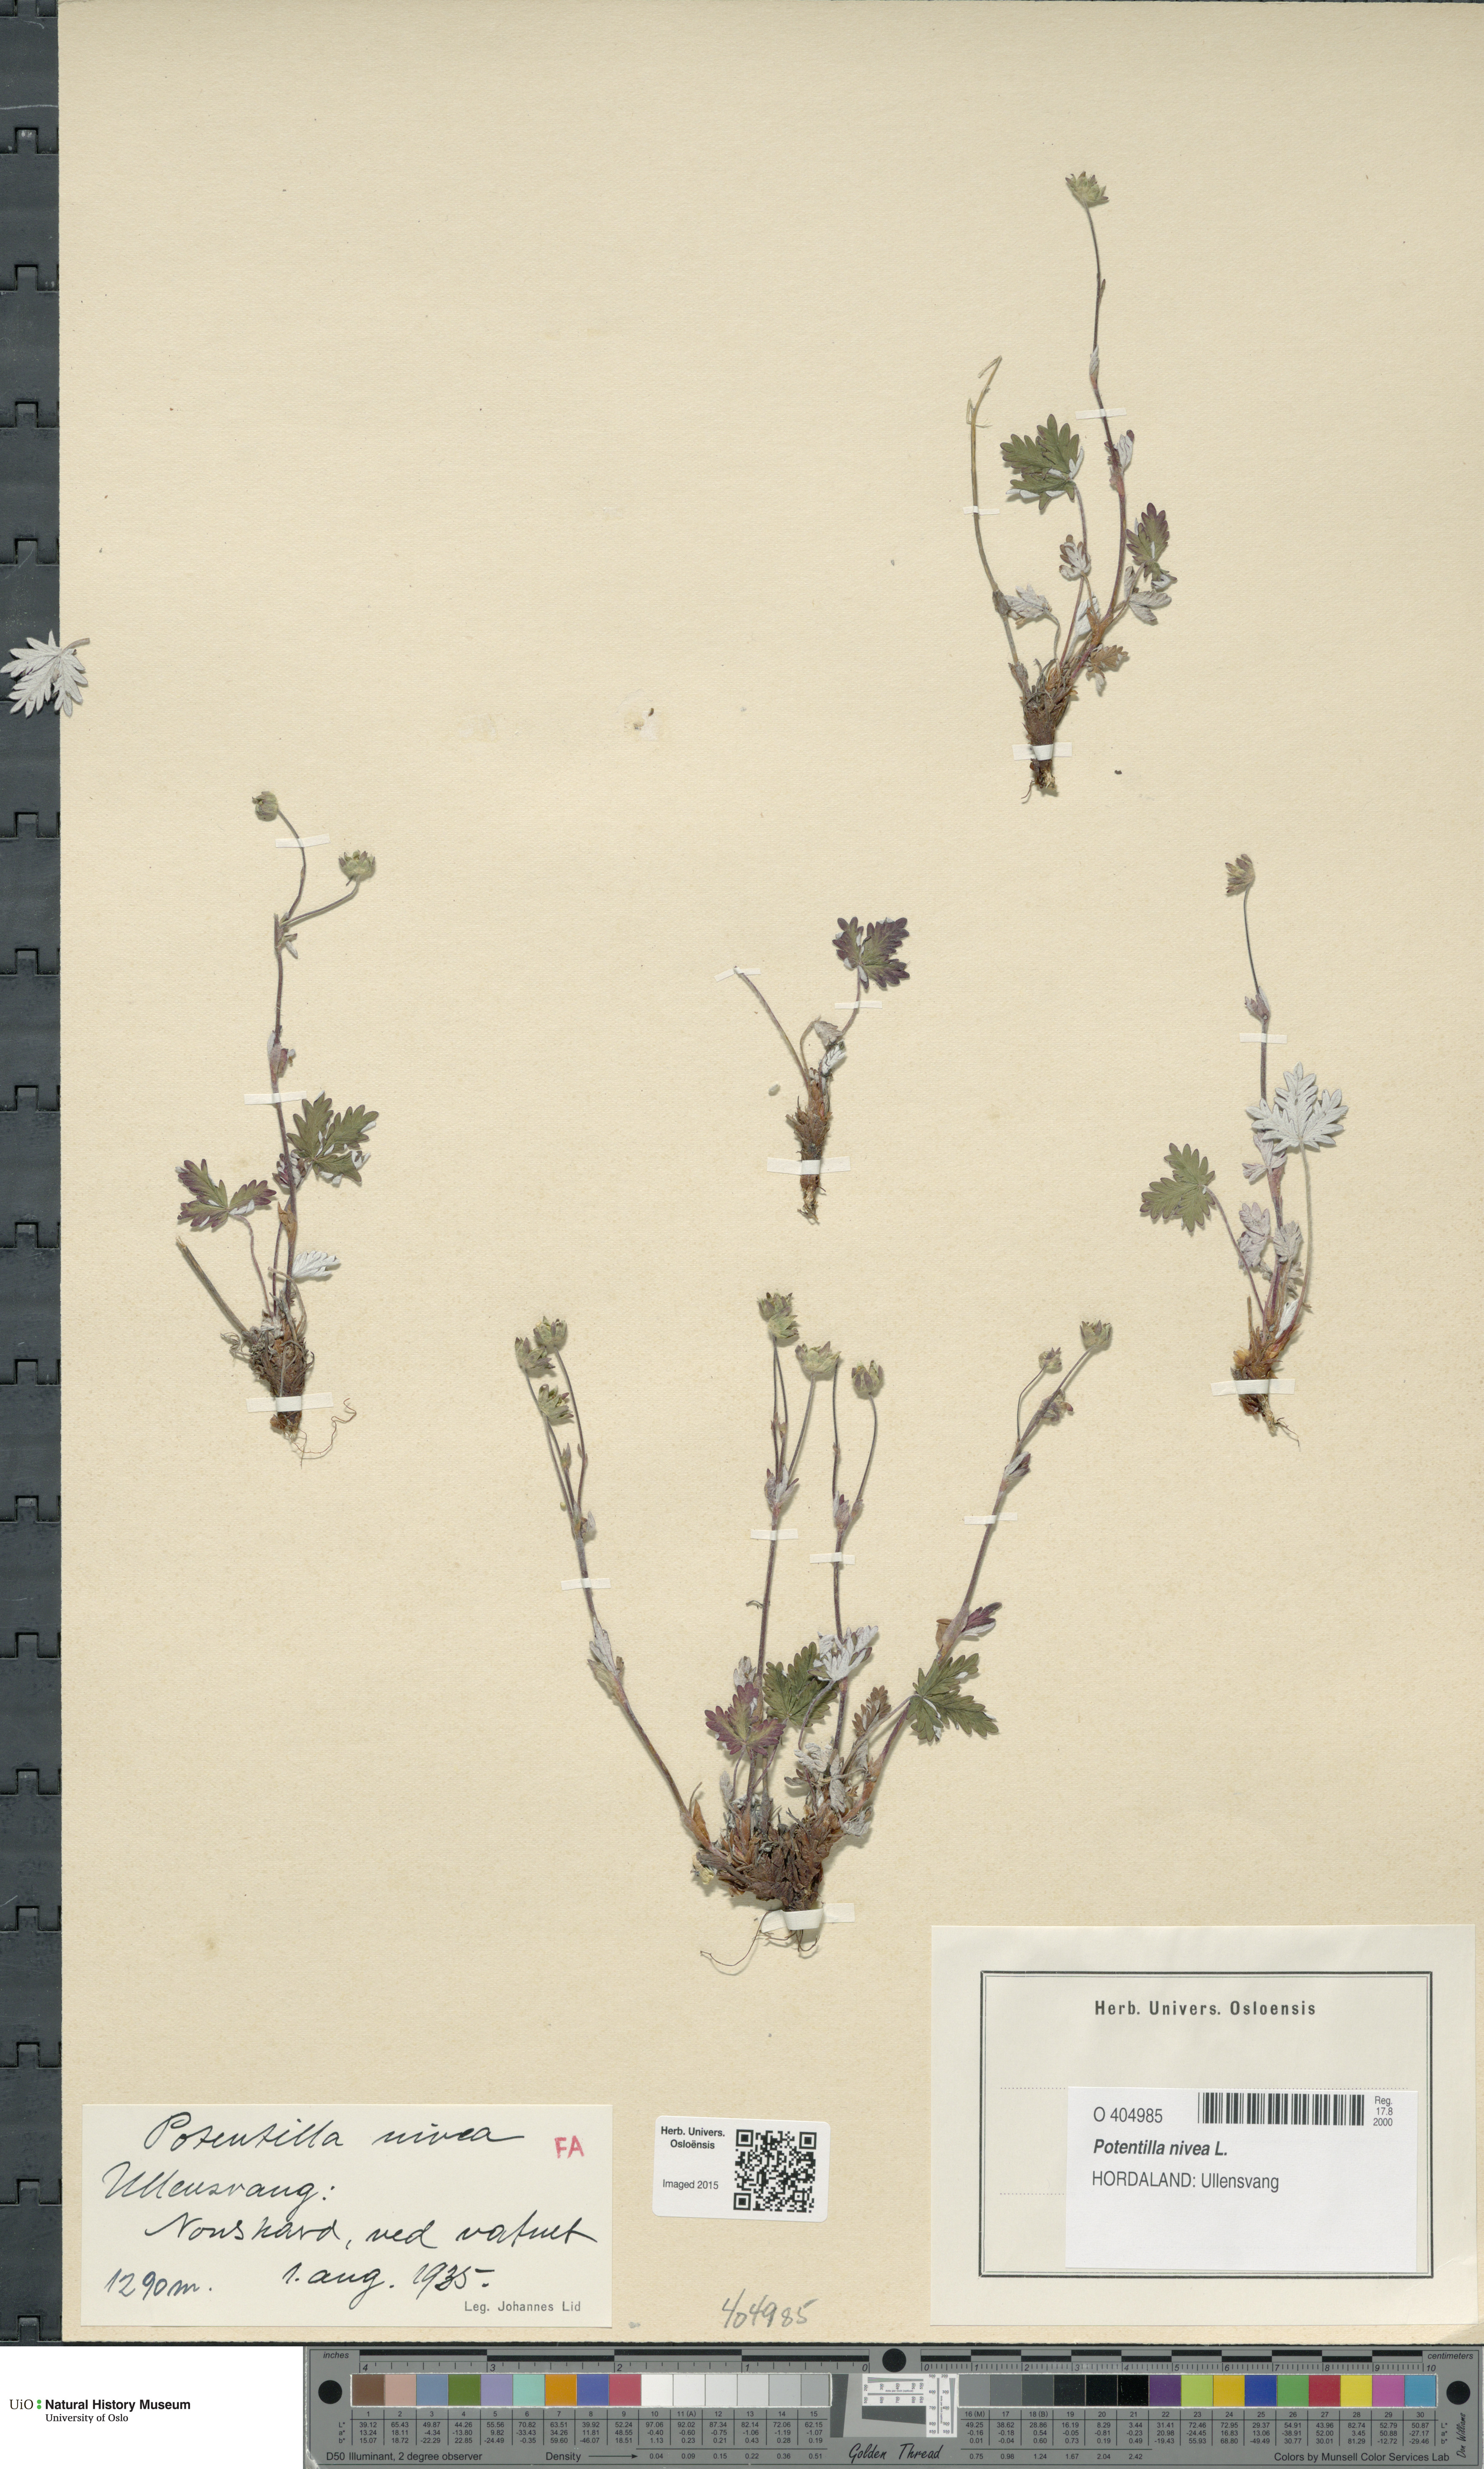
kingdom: Plantae
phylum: Tracheophyta
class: Magnoliopsida
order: Rosales
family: Rosaceae
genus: Potentilla
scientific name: Potentilla arenosa
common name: Bluff cinquefoil
